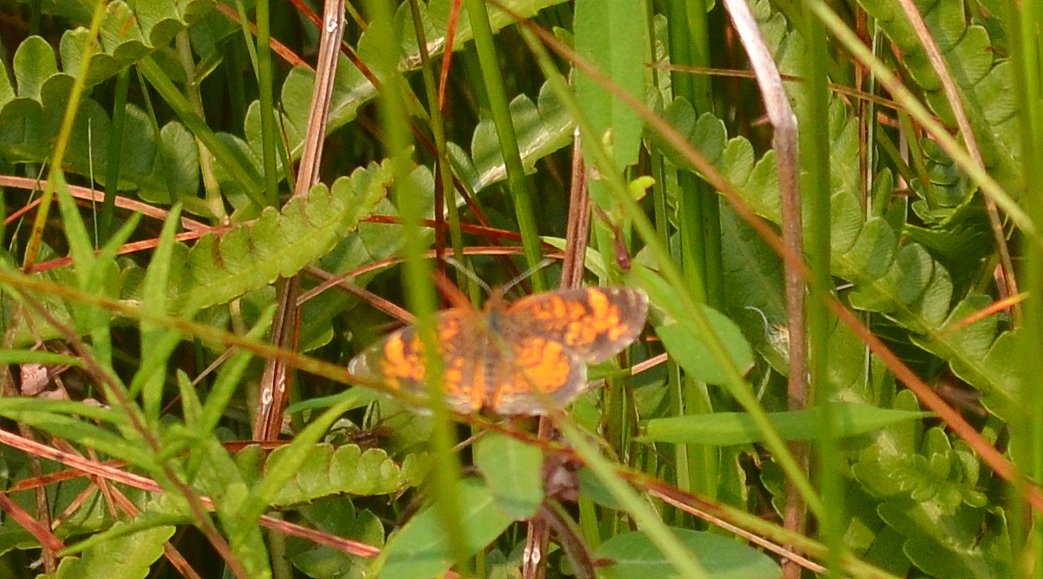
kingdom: Animalia
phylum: Arthropoda
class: Insecta
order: Lepidoptera
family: Nymphalidae
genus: Phyciodes
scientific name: Phyciodes tharos
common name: Northern Crescent
